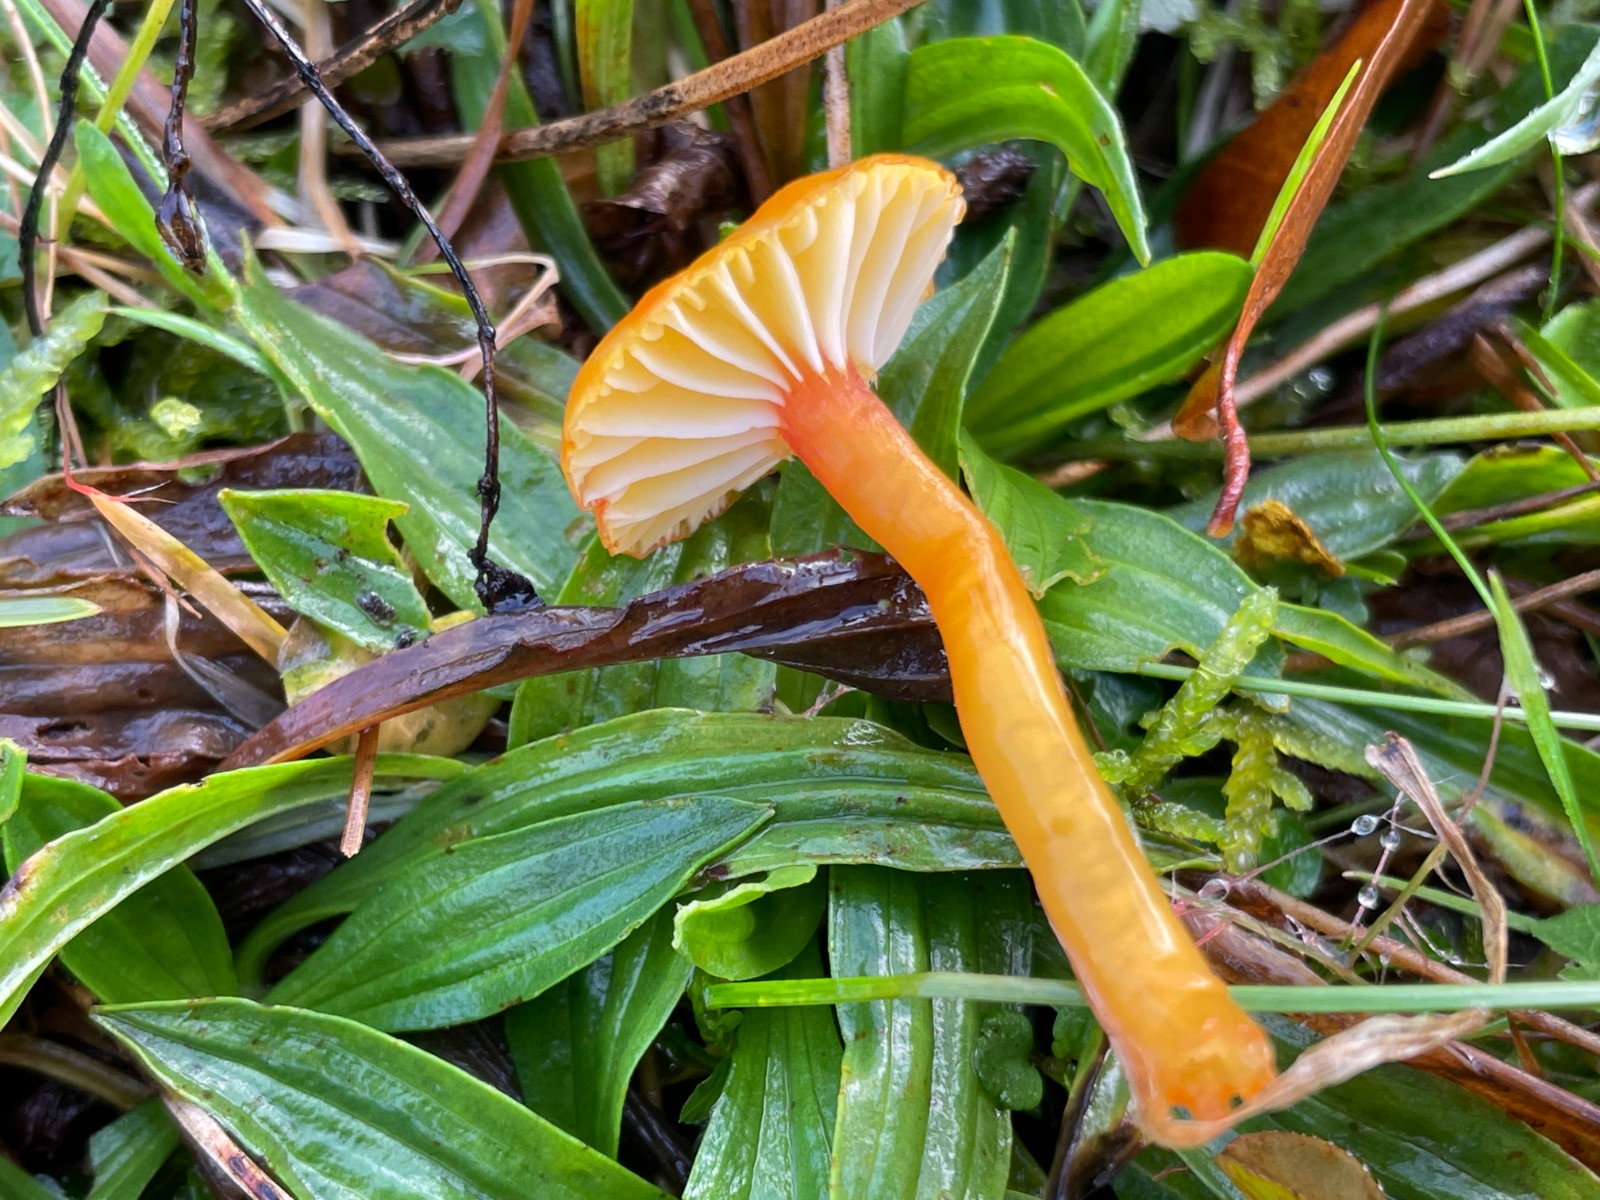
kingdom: Fungi
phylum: Basidiomycota
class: Agaricomycetes
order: Agaricales
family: Hygrophoraceae
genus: Hygrocybe
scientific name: Hygrocybe insipida
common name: liden vokshat
